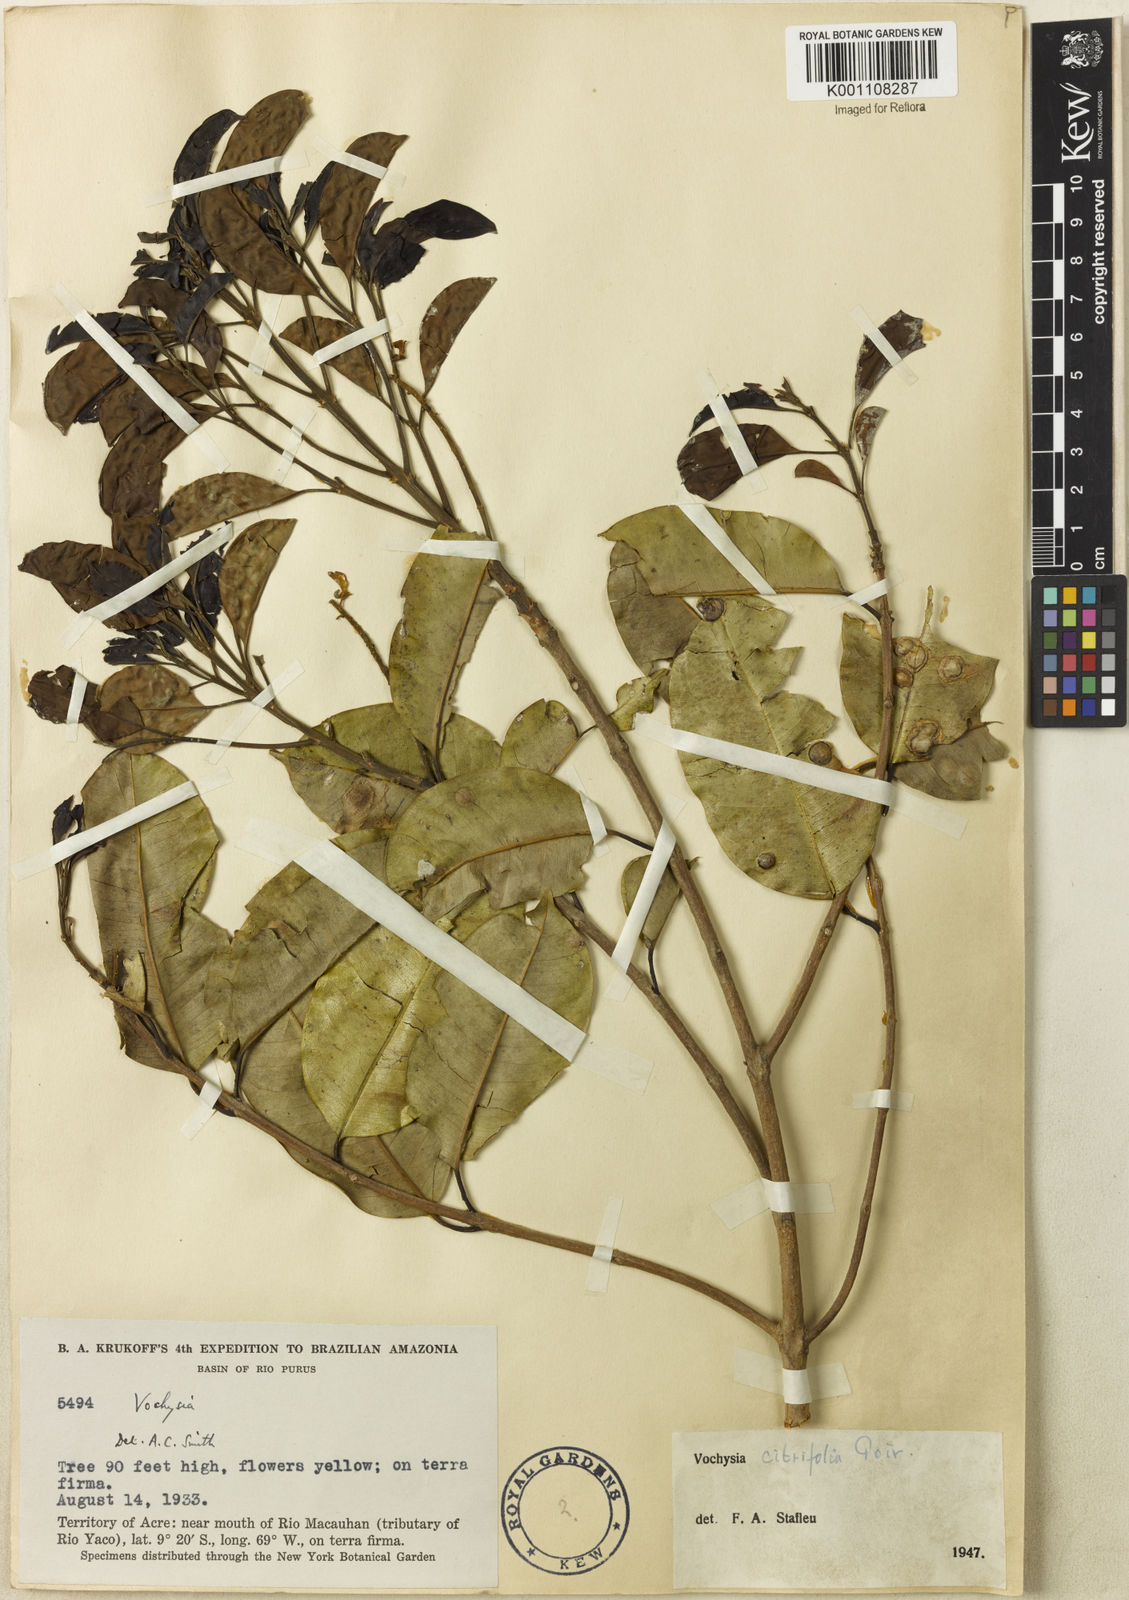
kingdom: Plantae
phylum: Tracheophyta
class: Magnoliopsida
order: Myrtales
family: Vochysiaceae
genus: Vochysia
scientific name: Vochysia citrifolia
